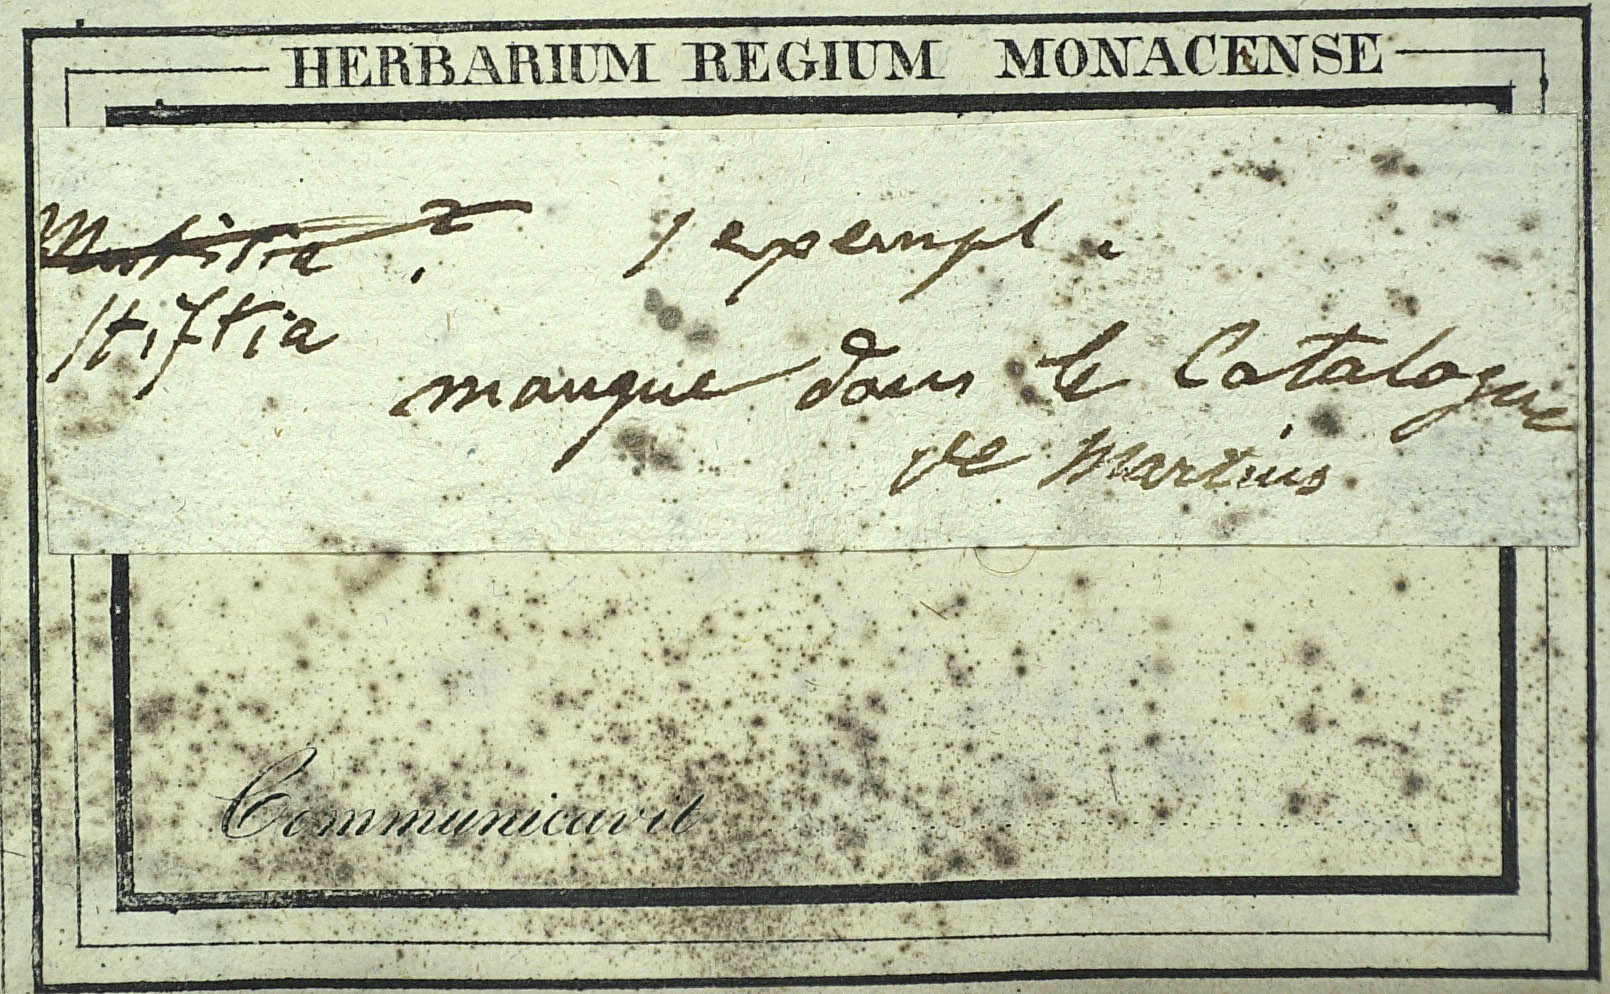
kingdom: Plantae
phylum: Tracheophyta
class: Magnoliopsida
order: Asterales
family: Asteraceae
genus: Gongylolepis
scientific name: Gongylolepis martiana
